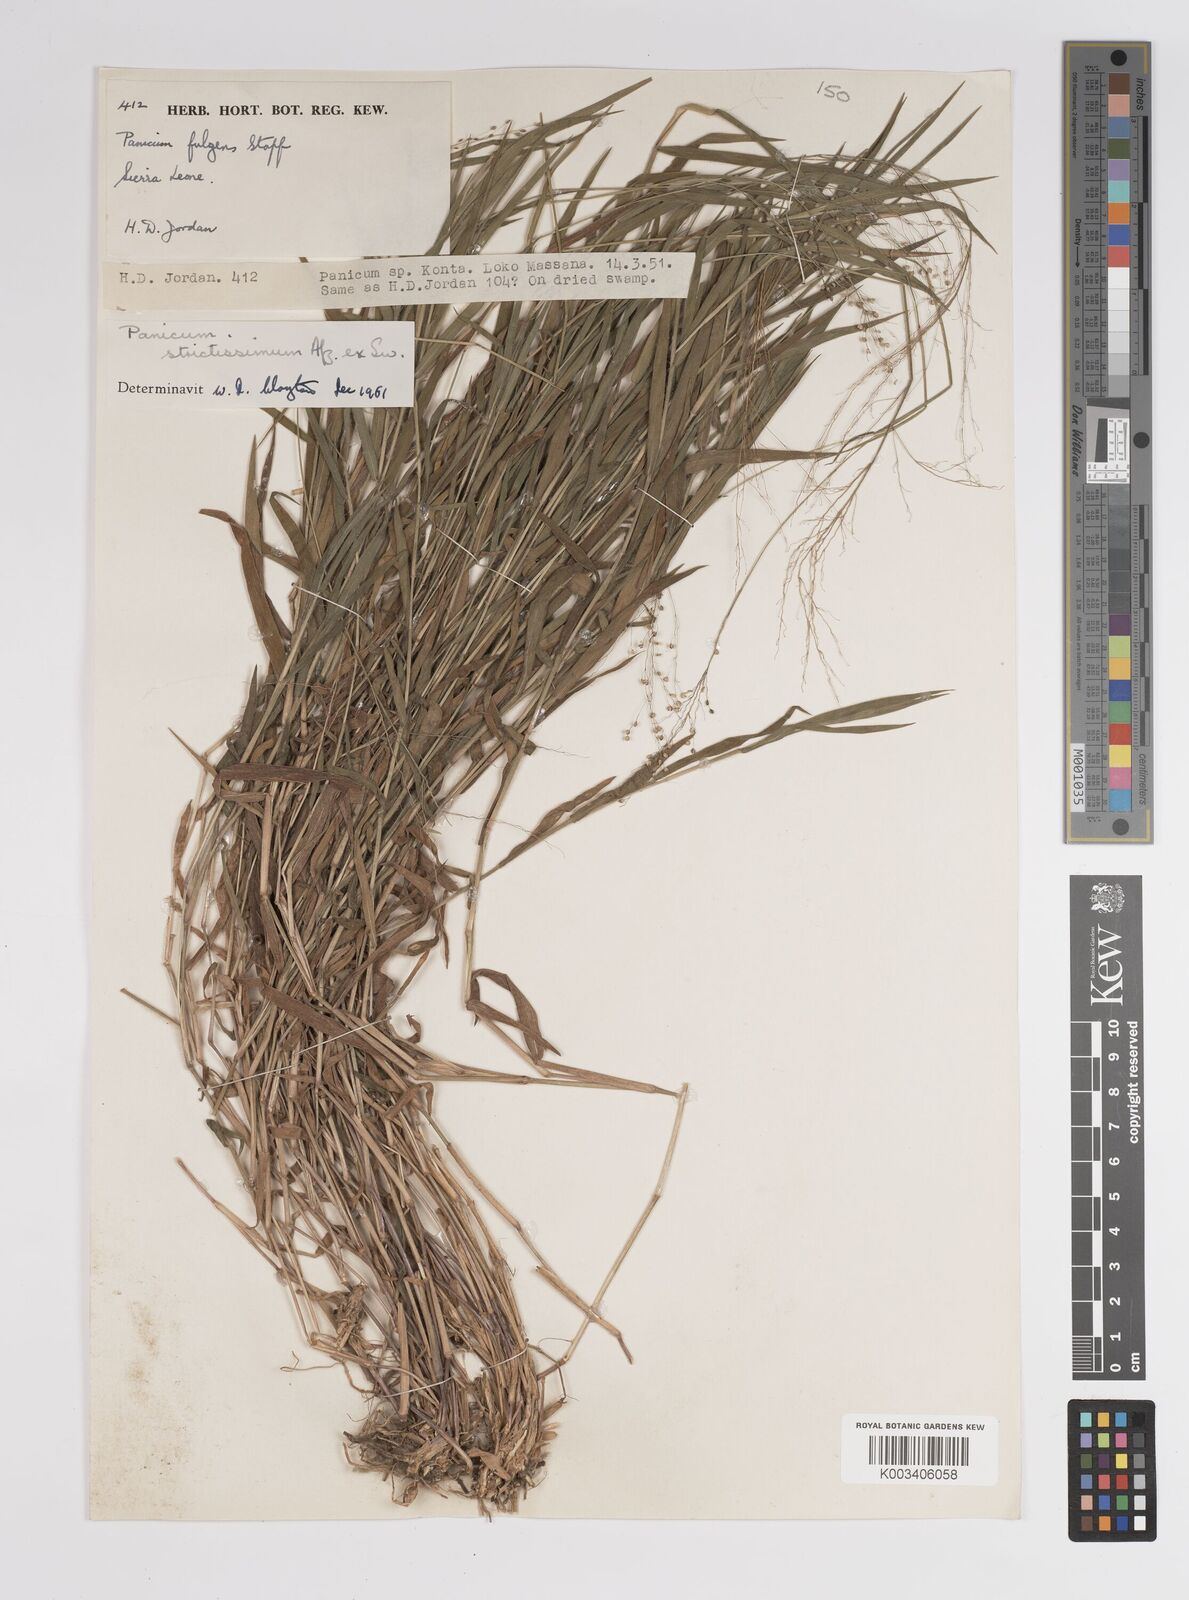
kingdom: Plantae
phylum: Tracheophyta
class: Liliopsida
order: Poales
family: Poaceae
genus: Trichanthecium
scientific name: Trichanthecium strictissimum
